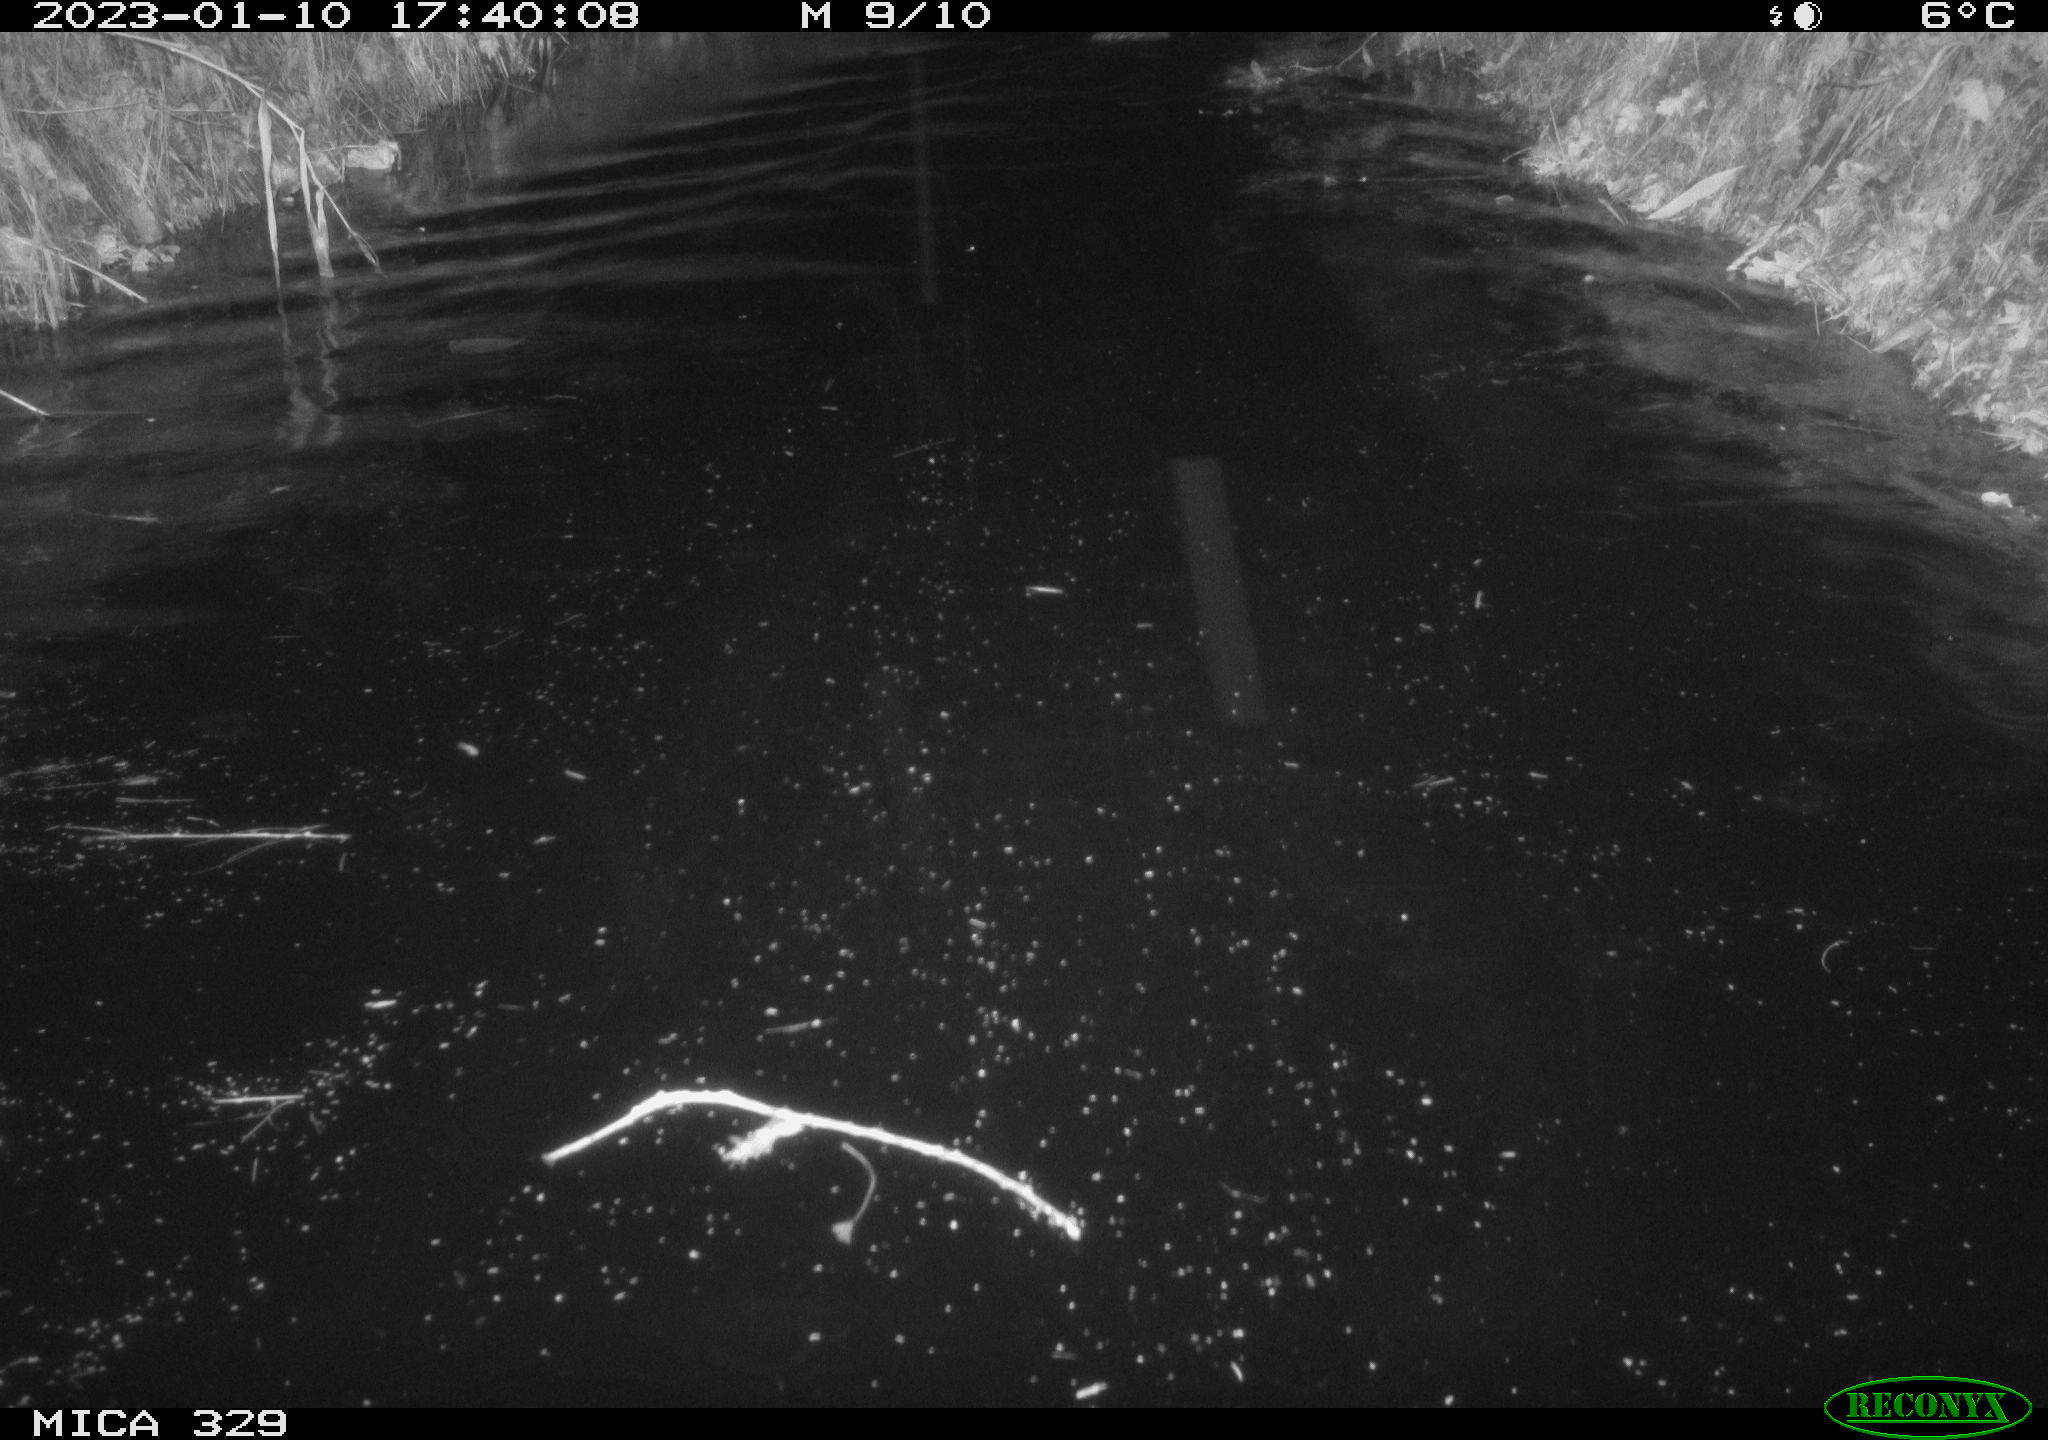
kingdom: Animalia
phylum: Chordata
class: Mammalia
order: Rodentia
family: Cricetidae
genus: Ondatra
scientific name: Ondatra zibethicus
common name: Muskrat
